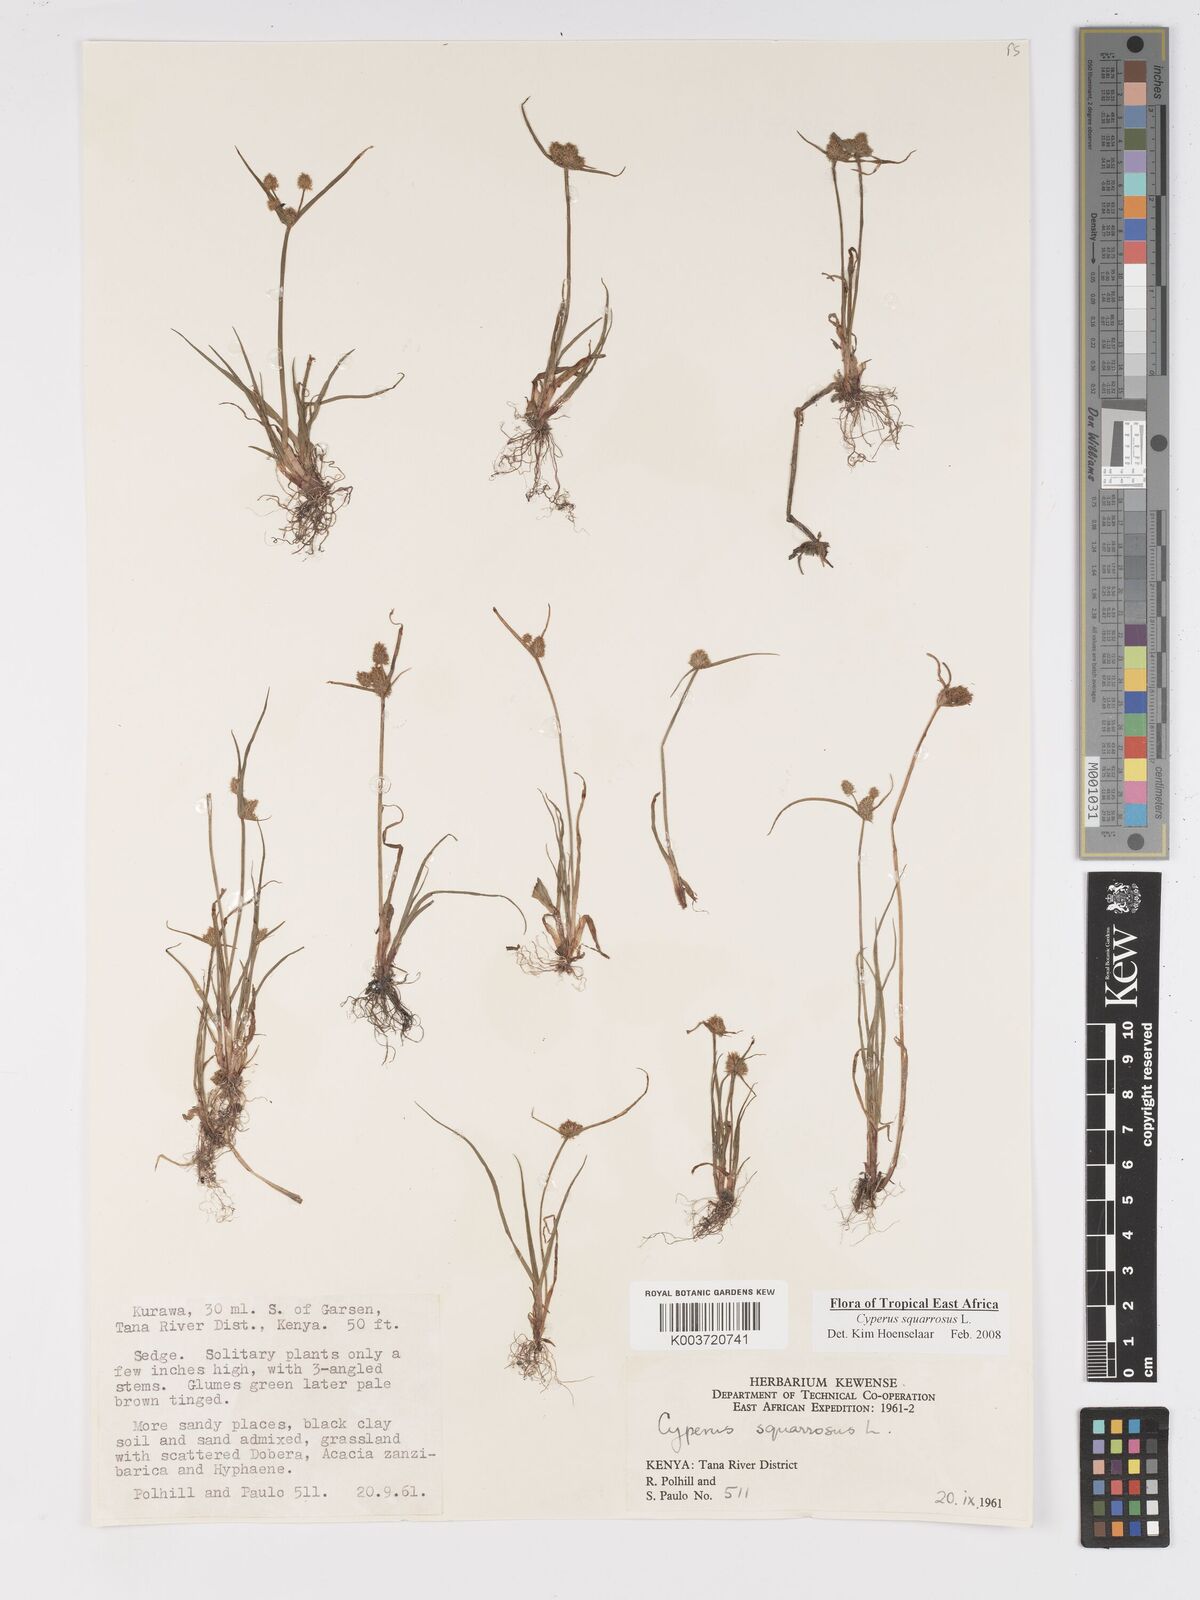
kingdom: Plantae
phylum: Tracheophyta
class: Liliopsida
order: Poales
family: Cyperaceae
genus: Cyperus
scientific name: Cyperus squarrosus
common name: Awned cyperus
